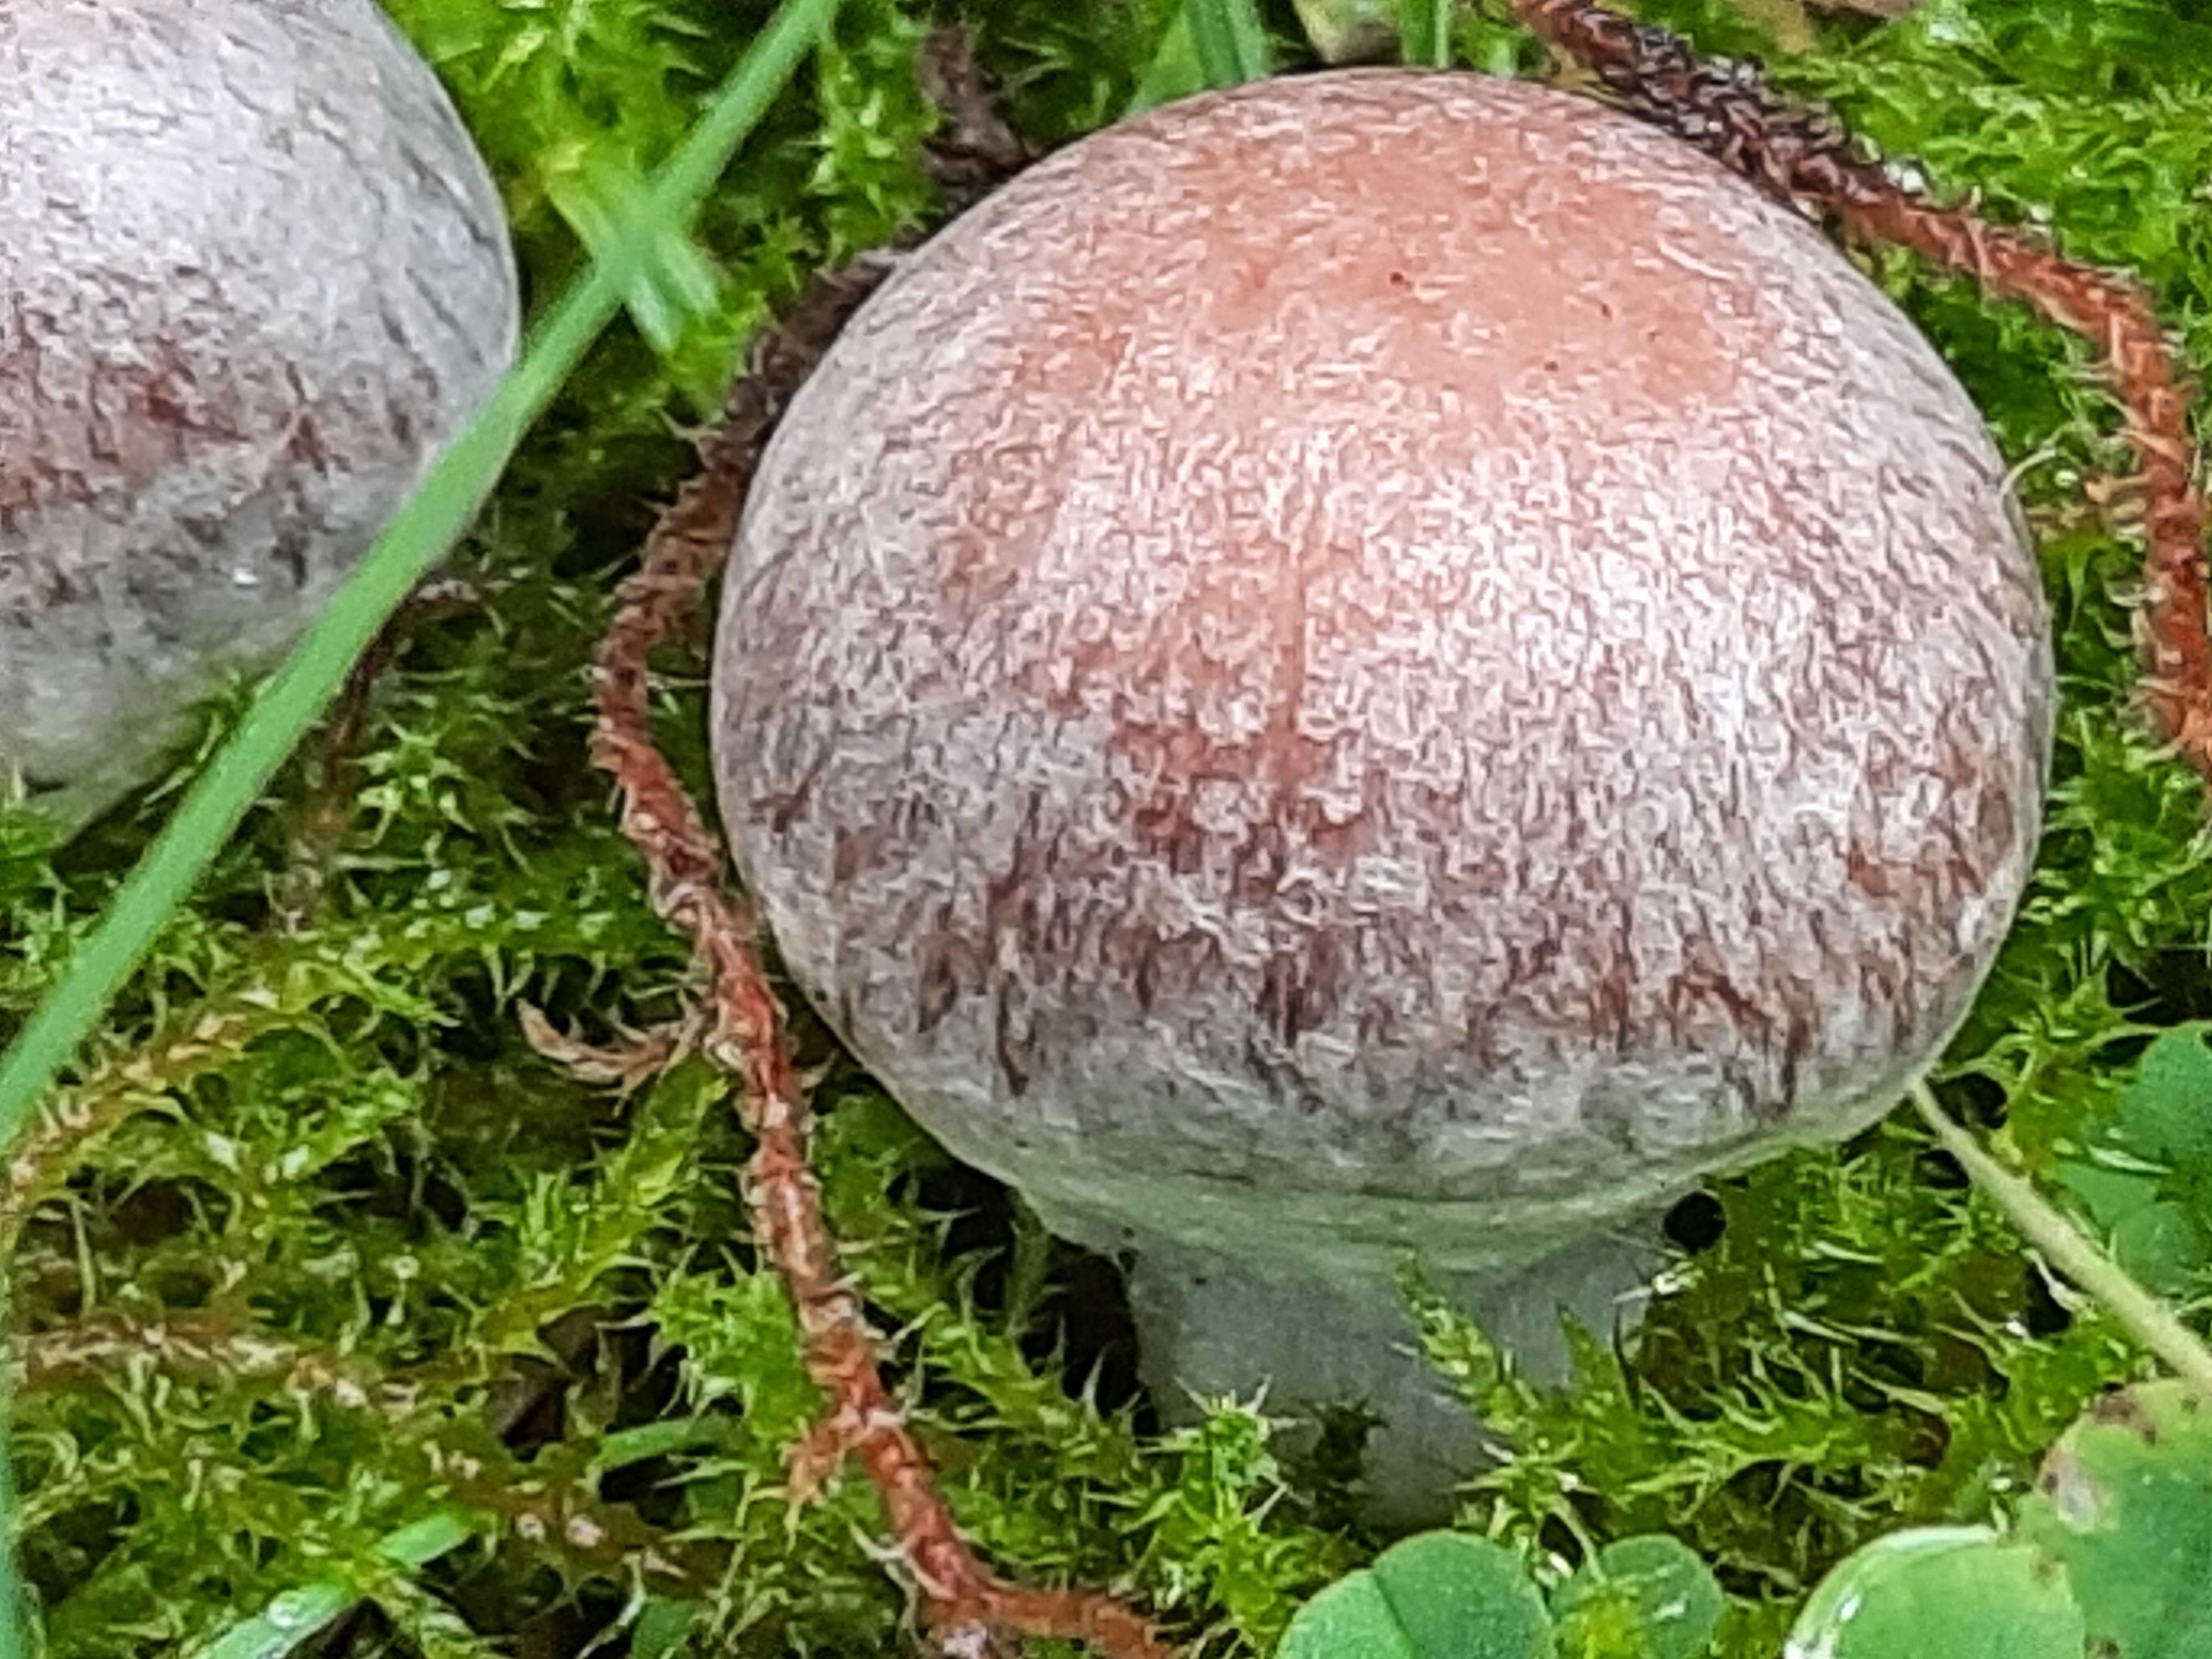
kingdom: Fungi
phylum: Basidiomycota
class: Agaricomycetes
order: Agaricales
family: Cortinariaceae
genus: Cortinarius
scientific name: Cortinarius
